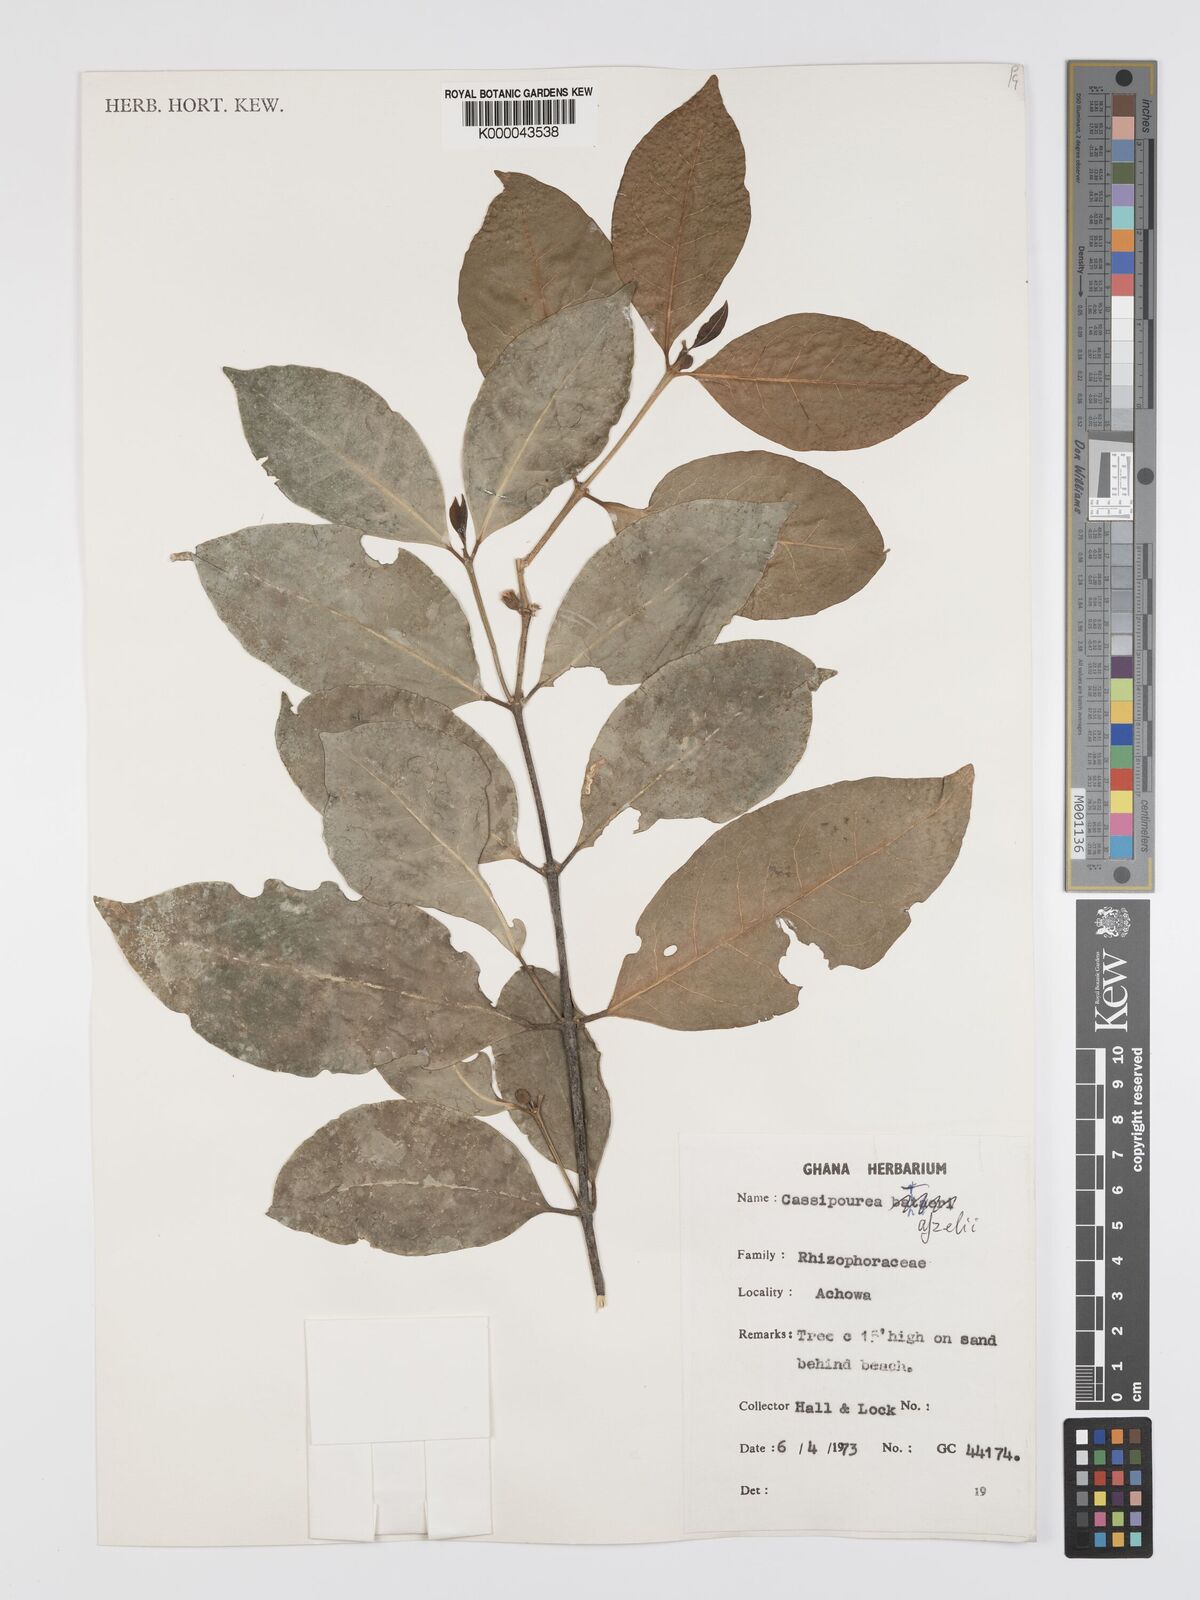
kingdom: Plantae
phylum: Tracheophyta
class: Magnoliopsida
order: Malpighiales
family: Rhizophoraceae
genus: Cassipourea
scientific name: Cassipourea afzelii
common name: Elephant tusk tree
